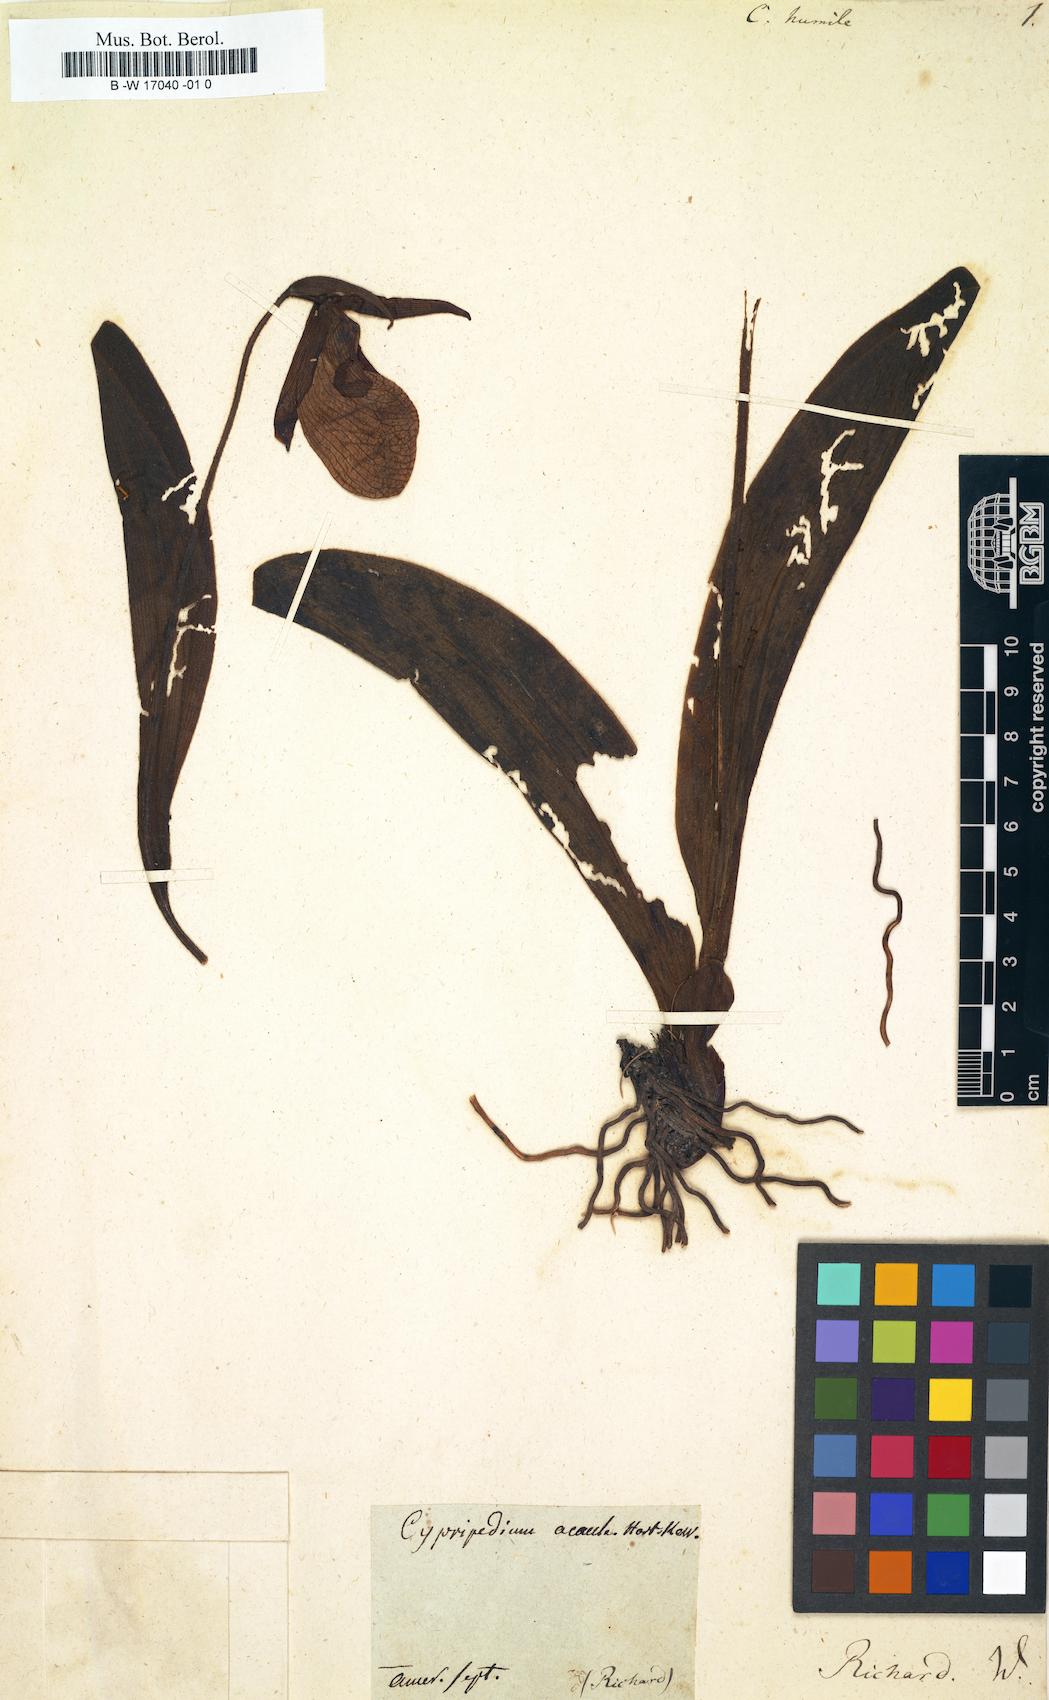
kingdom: Plantae
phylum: Tracheophyta
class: Liliopsida
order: Asparagales
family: Orchidaceae
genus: Cypripedium
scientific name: Cypripedium acaule
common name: Pink lady's-slipper
